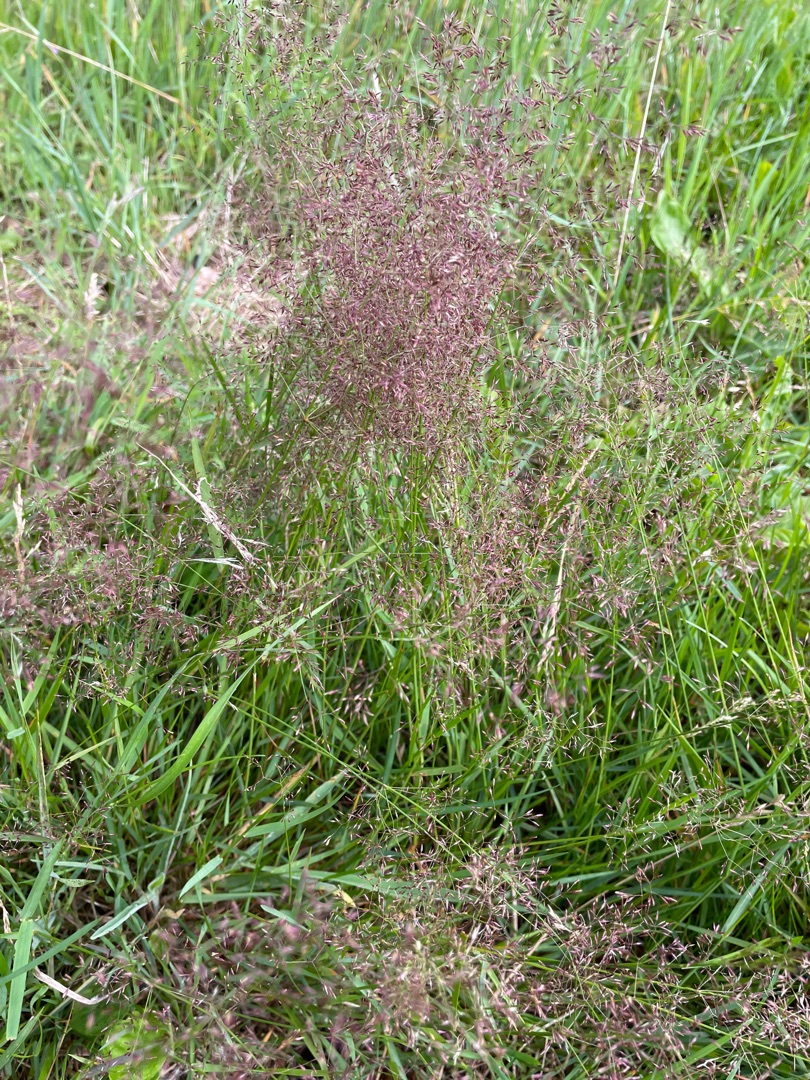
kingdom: Plantae
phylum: Tracheophyta
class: Liliopsida
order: Poales
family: Poaceae
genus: Agrostis
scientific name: Agrostis capillaris
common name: Almindelig hvene
